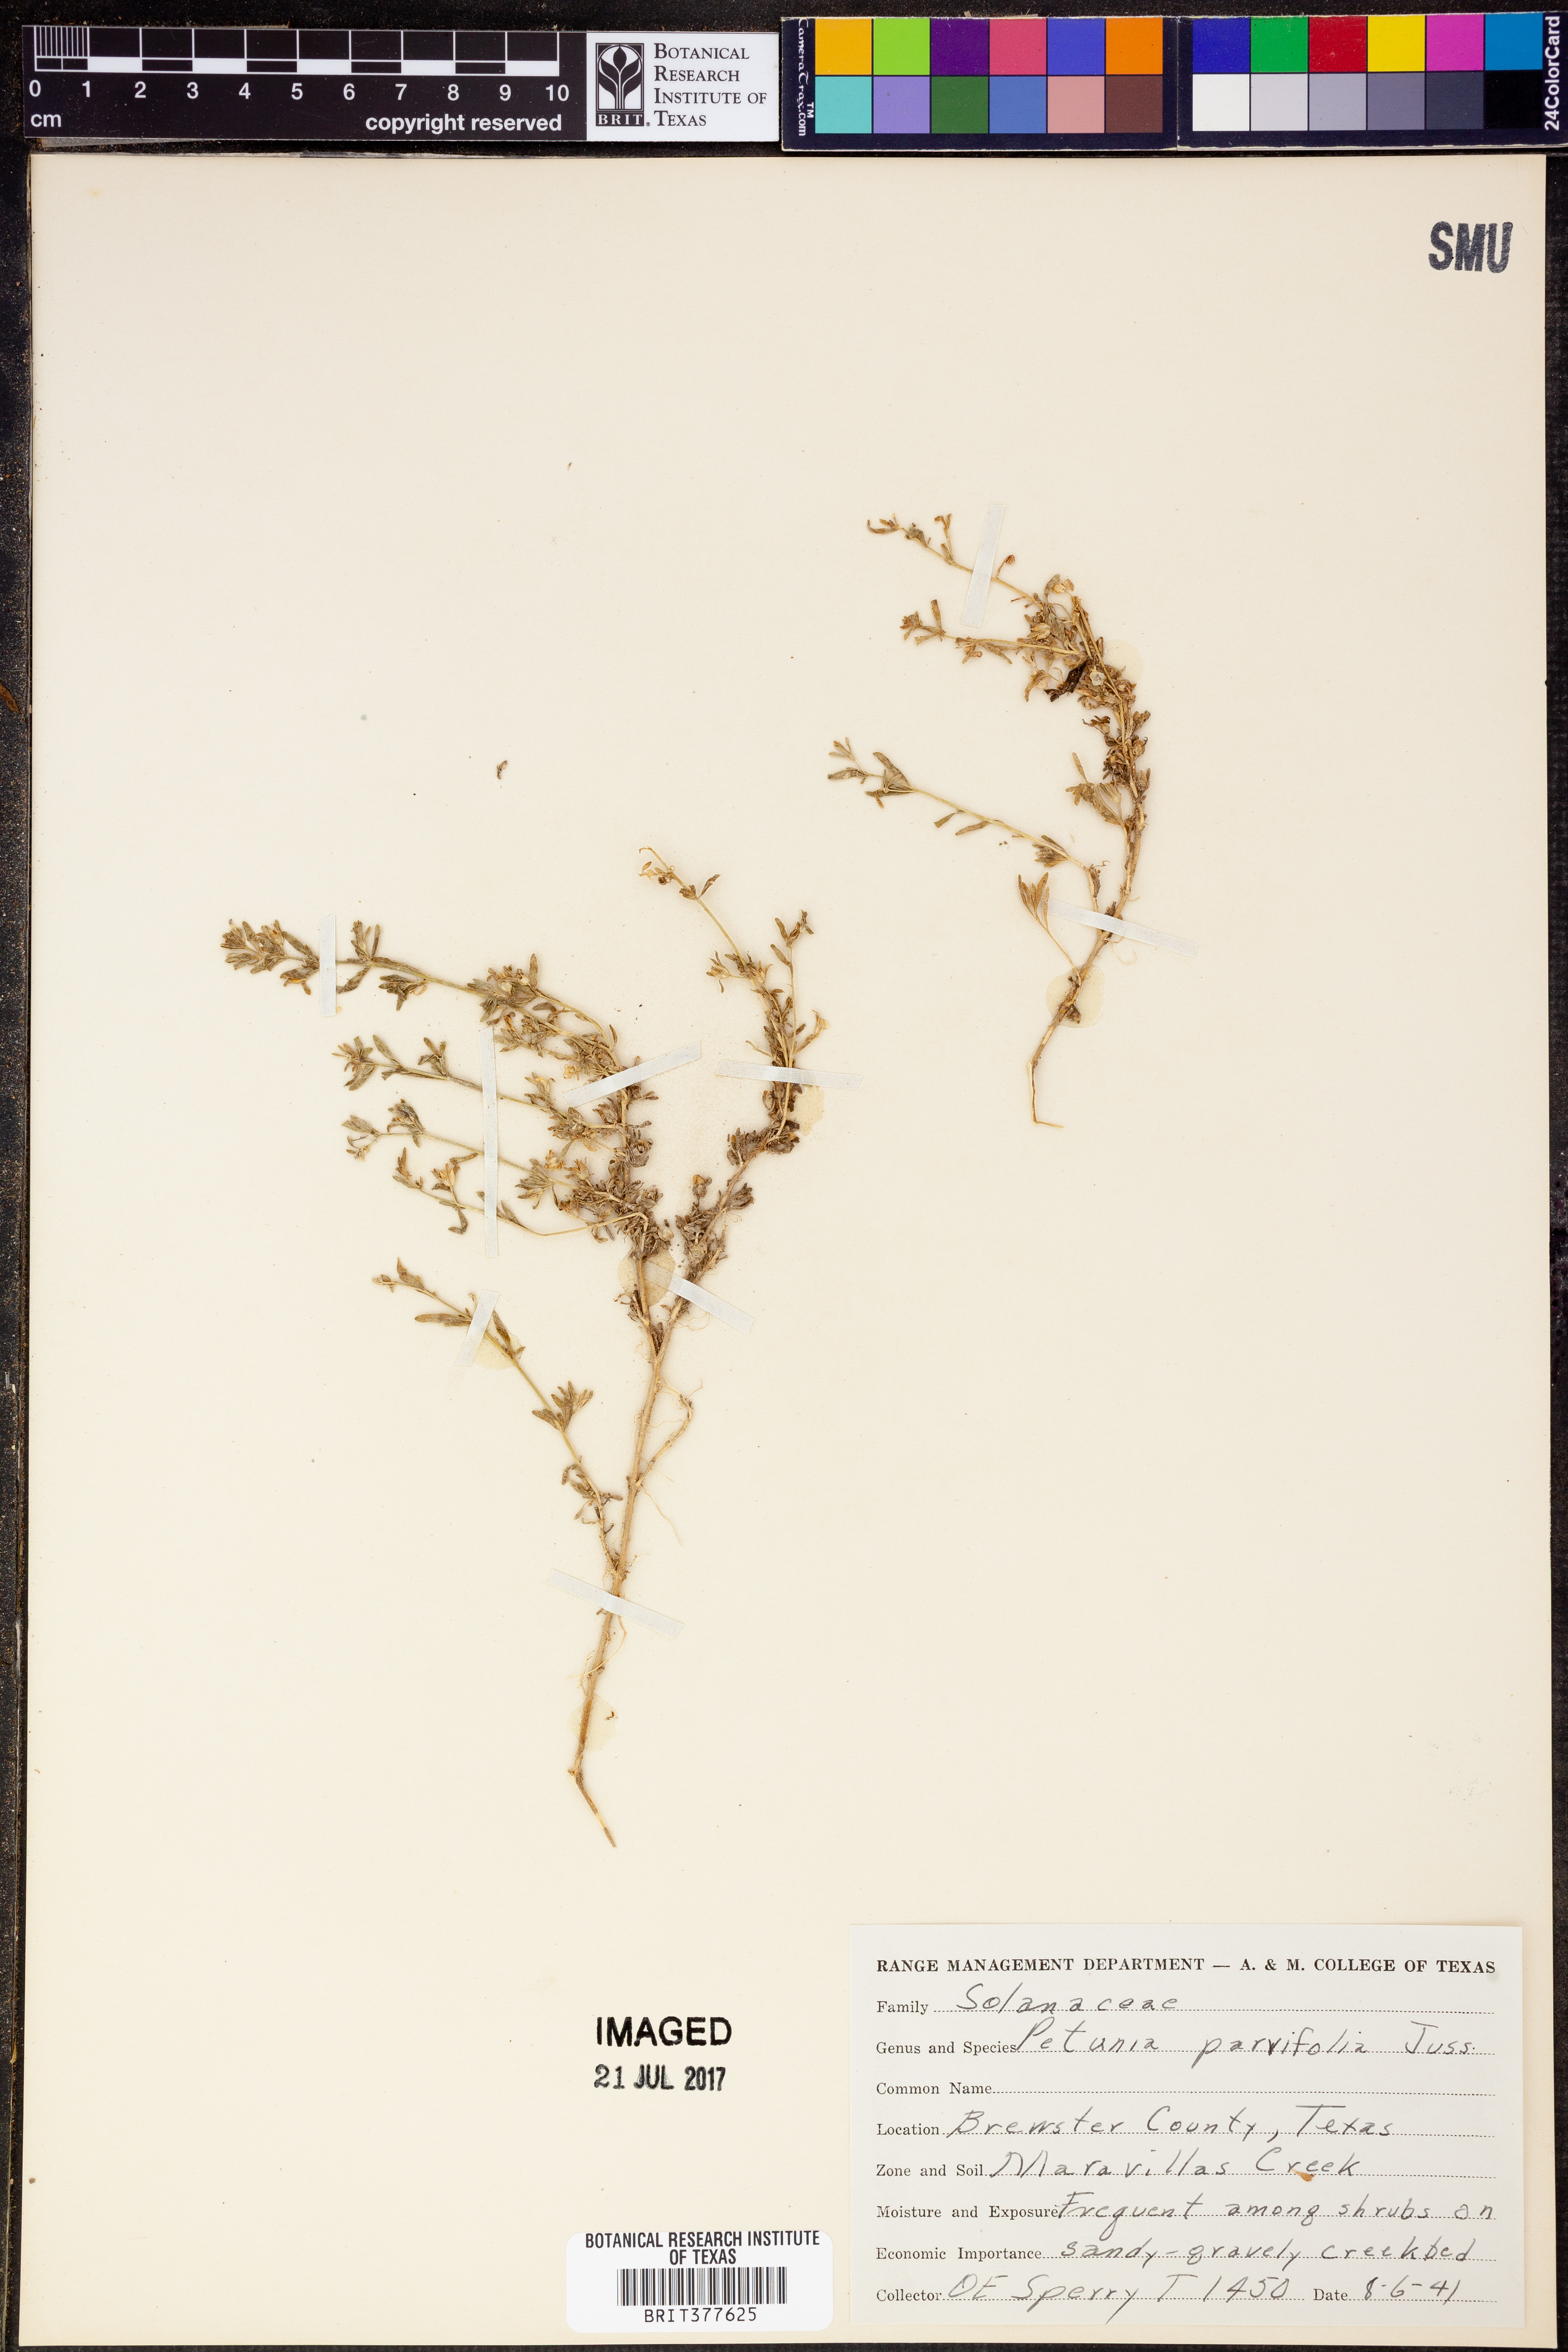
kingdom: Plantae
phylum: Tracheophyta
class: Magnoliopsida
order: Solanales
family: Solanaceae
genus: Calibrachoa
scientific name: Calibrachoa parviflora
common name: Seaside petunia
